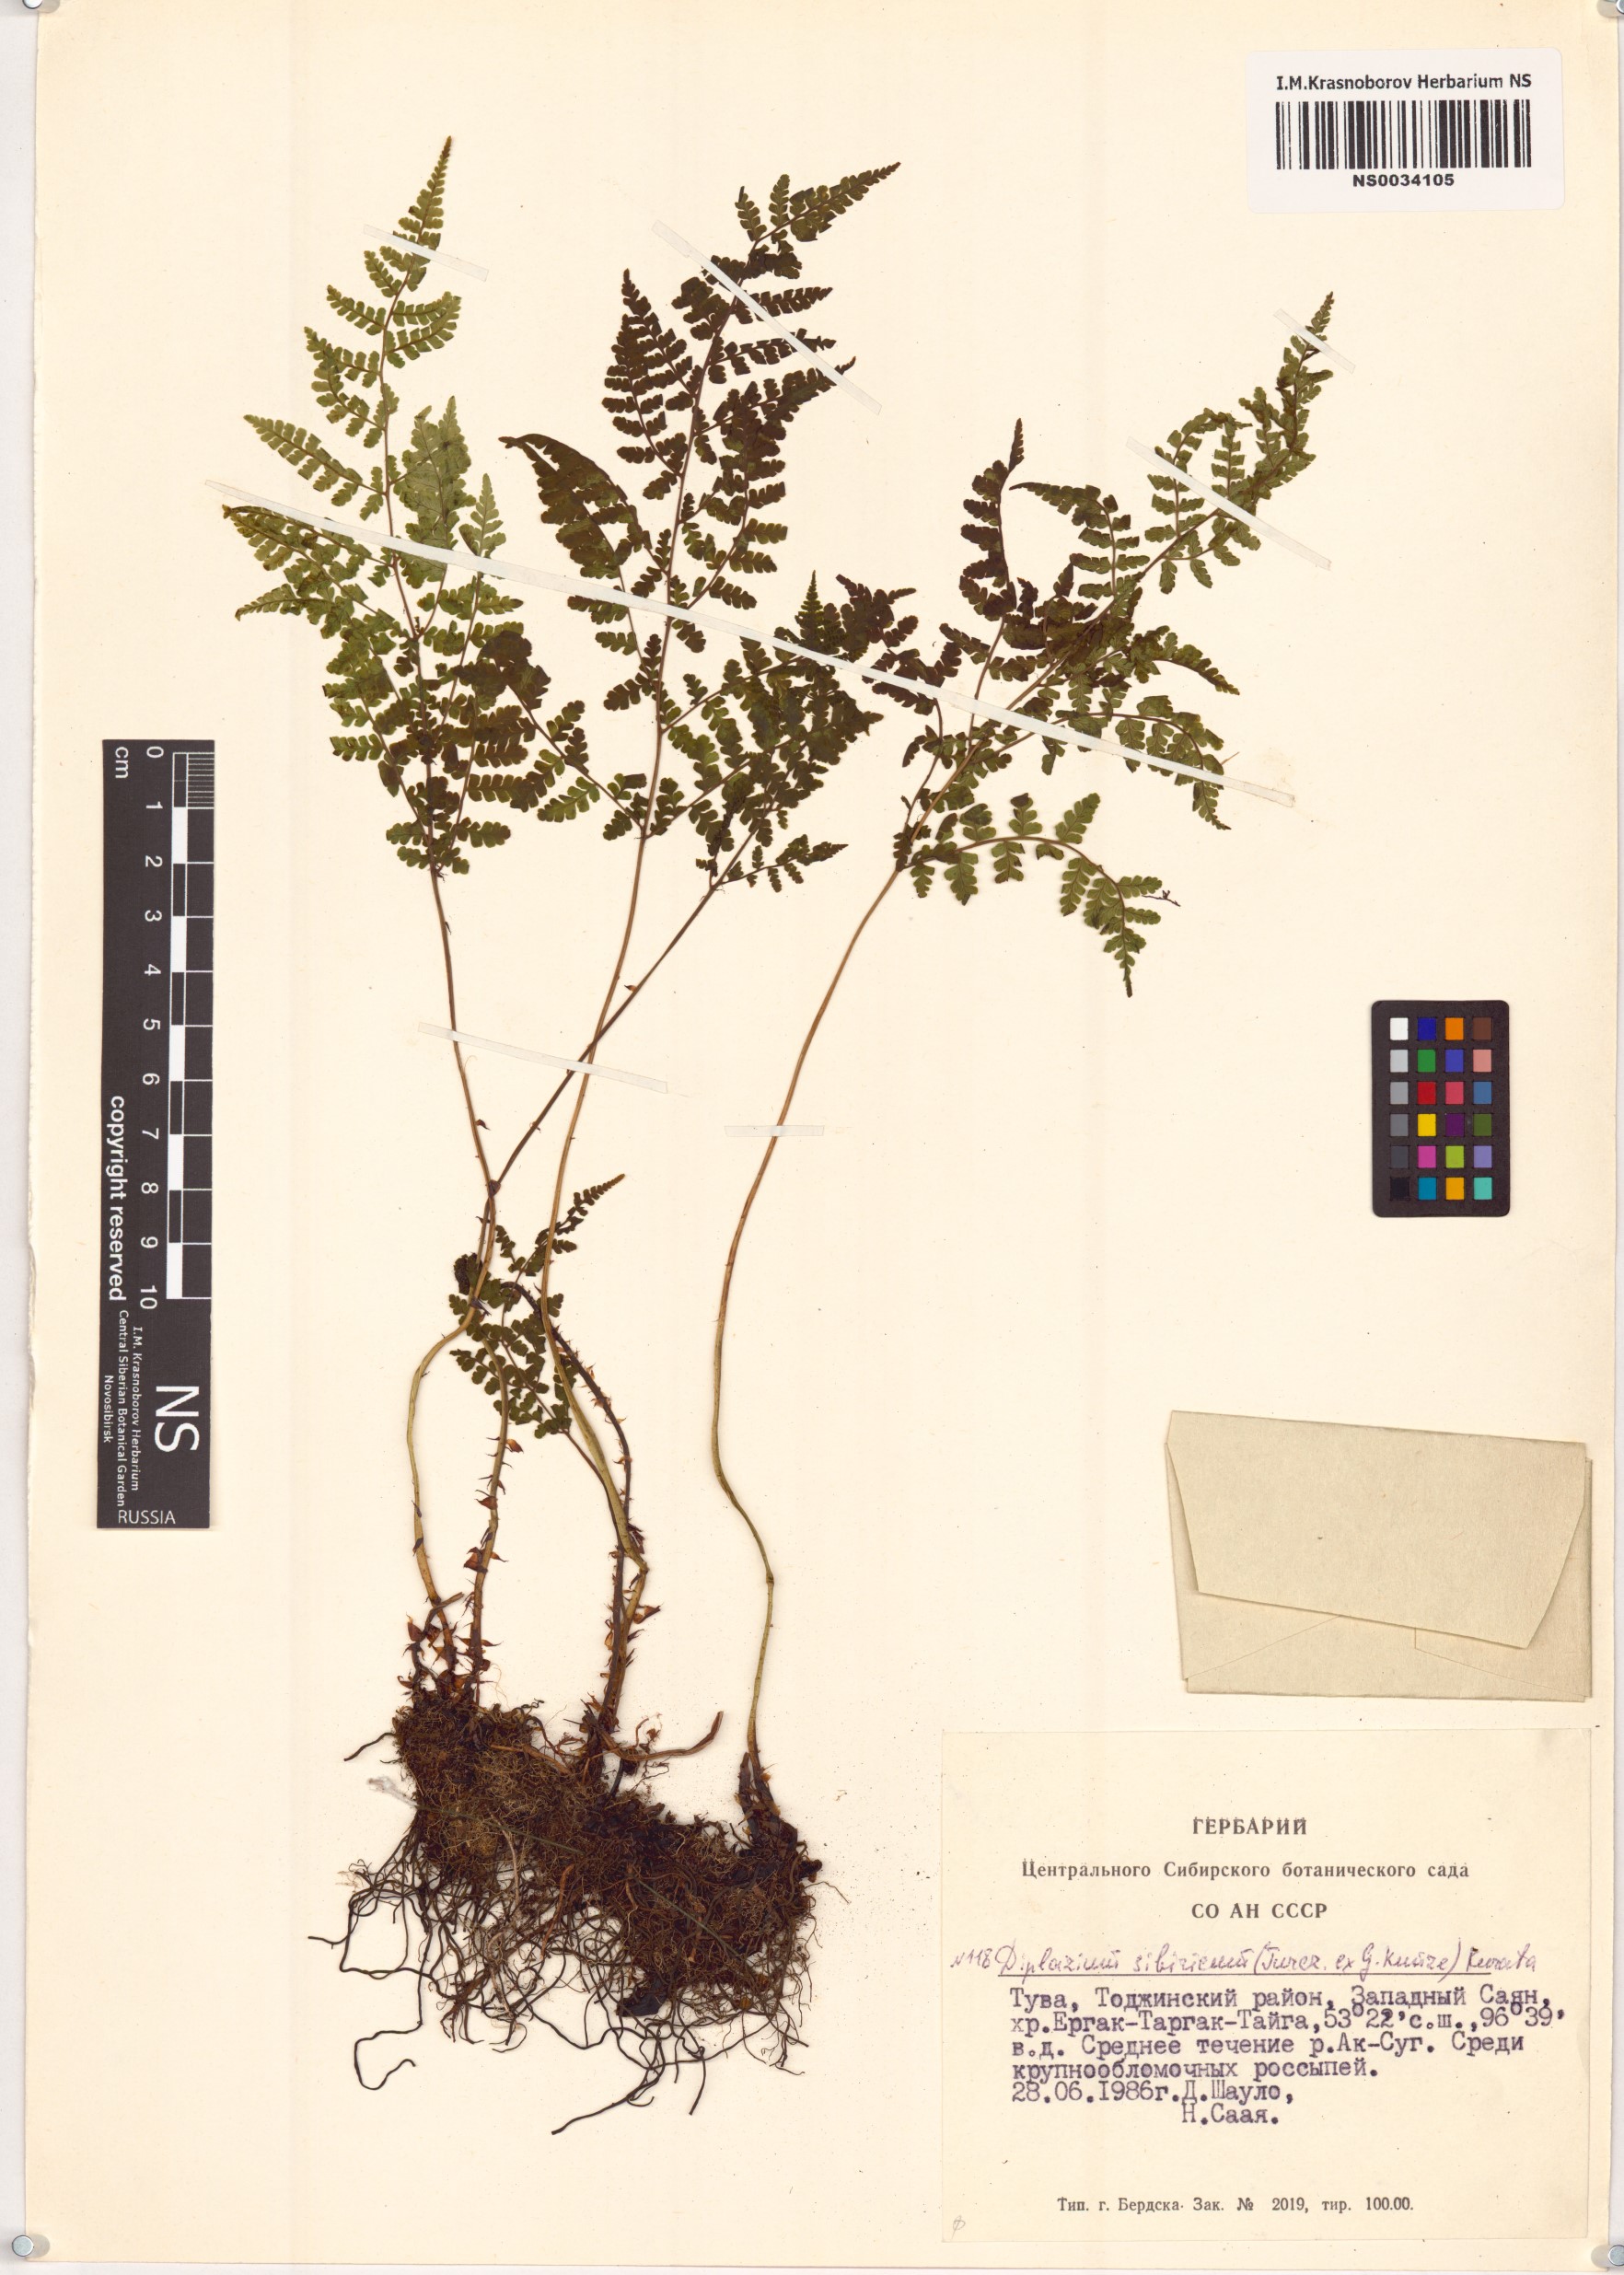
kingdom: Plantae
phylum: Tracheophyta
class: Polypodiopsida
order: Polypodiales
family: Athyriaceae
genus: Diplazium
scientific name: Diplazium sibiricum
